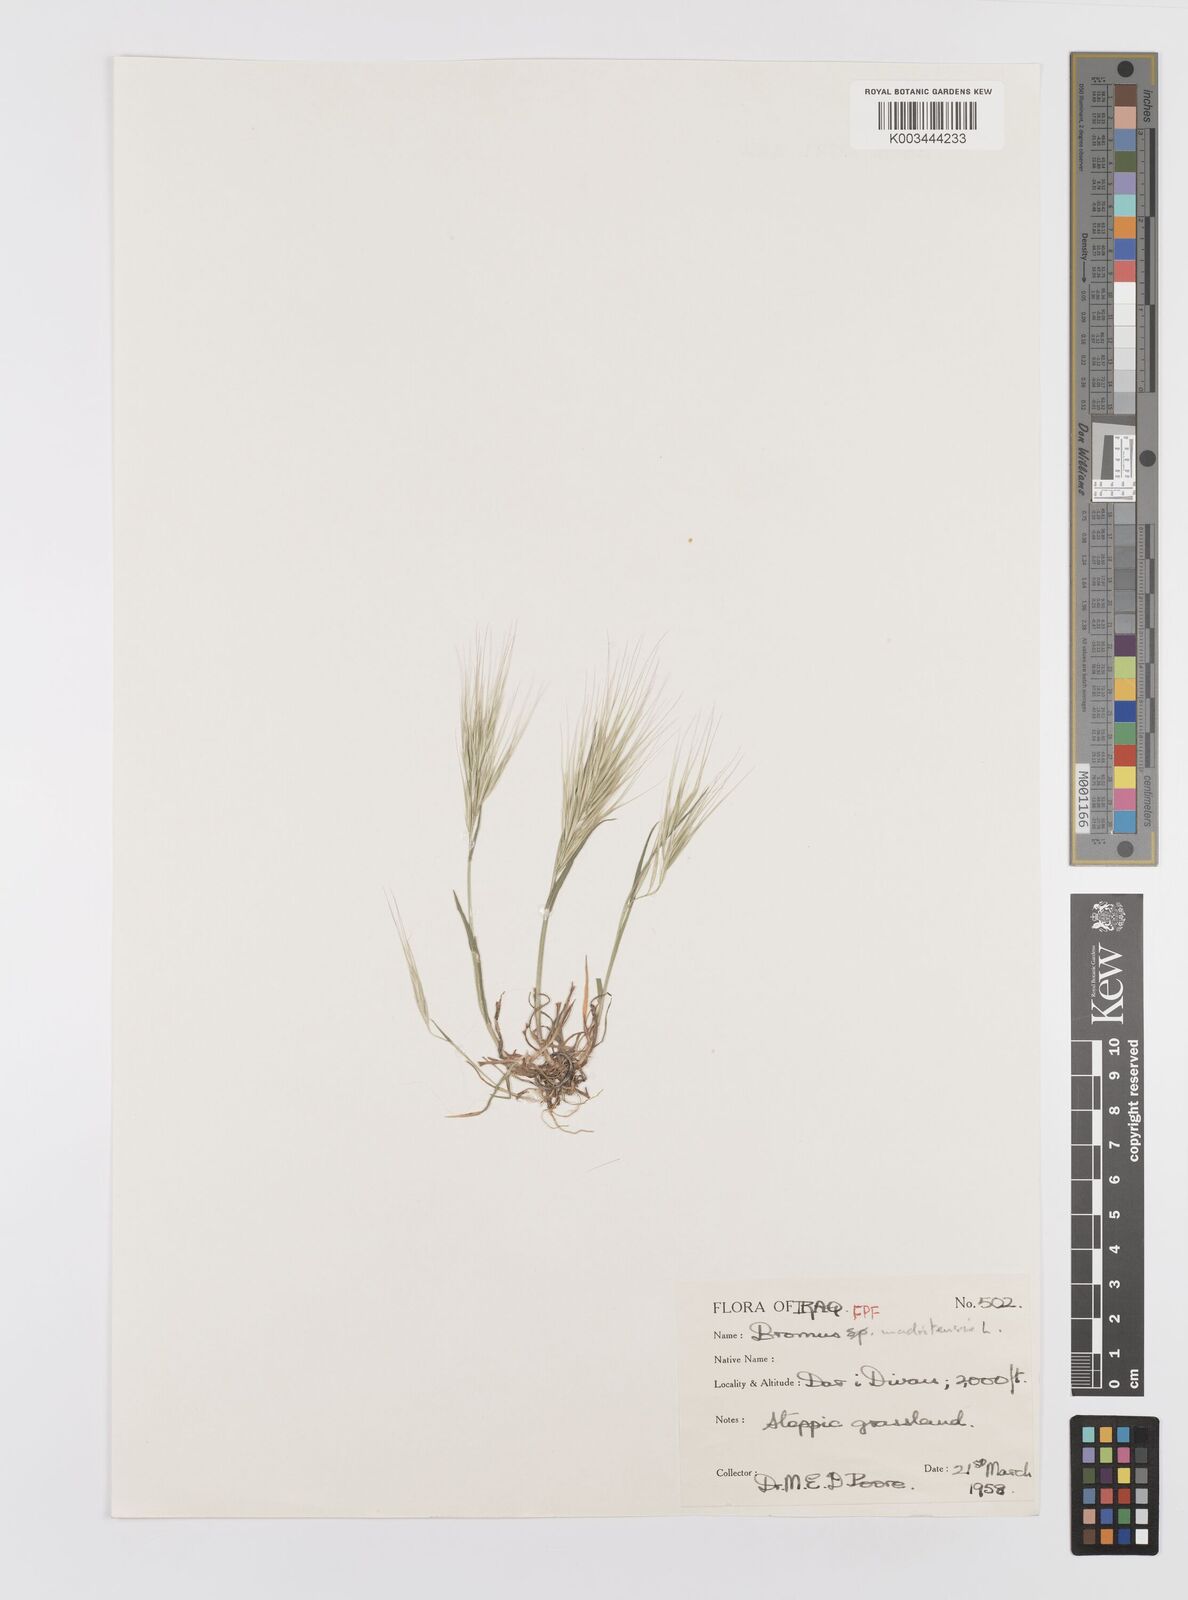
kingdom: Plantae
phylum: Tracheophyta
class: Liliopsida
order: Poales
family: Poaceae
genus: Bromus
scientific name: Bromus madritensis
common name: Compact brome
